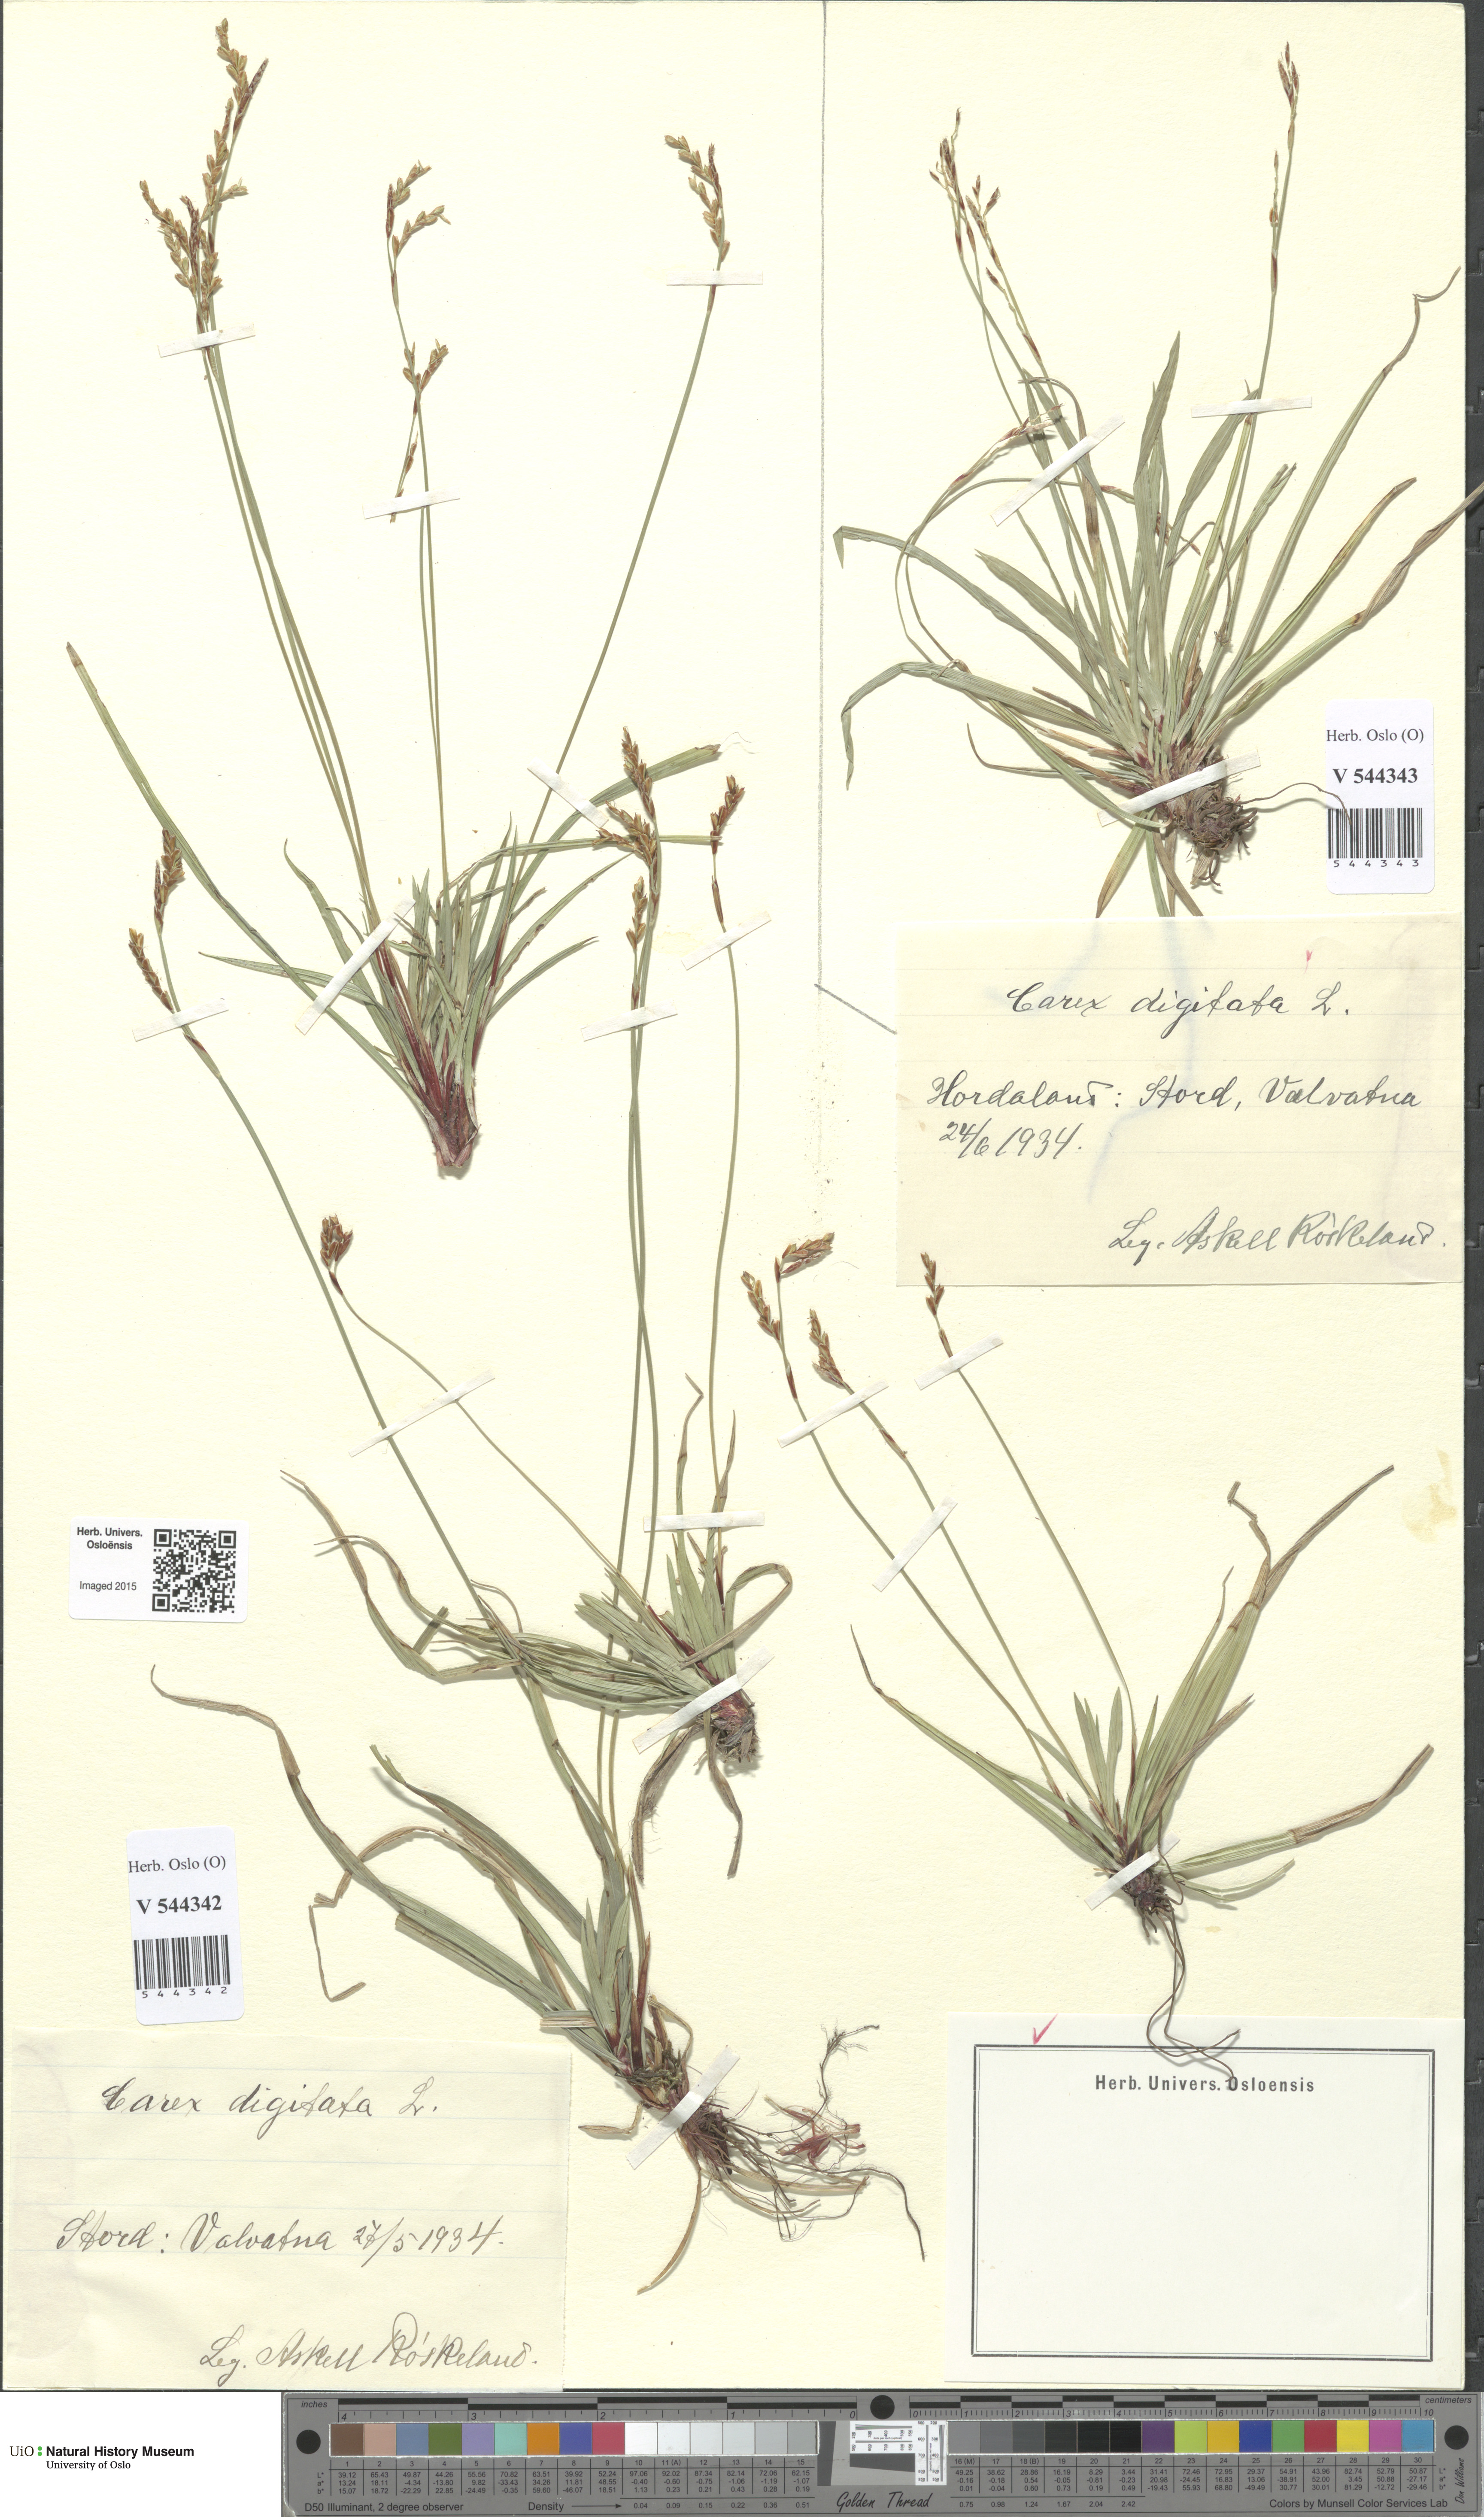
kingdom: Plantae
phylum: Tracheophyta
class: Liliopsida
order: Poales
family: Cyperaceae
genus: Carex
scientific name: Carex digitata
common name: Fingered sedge
